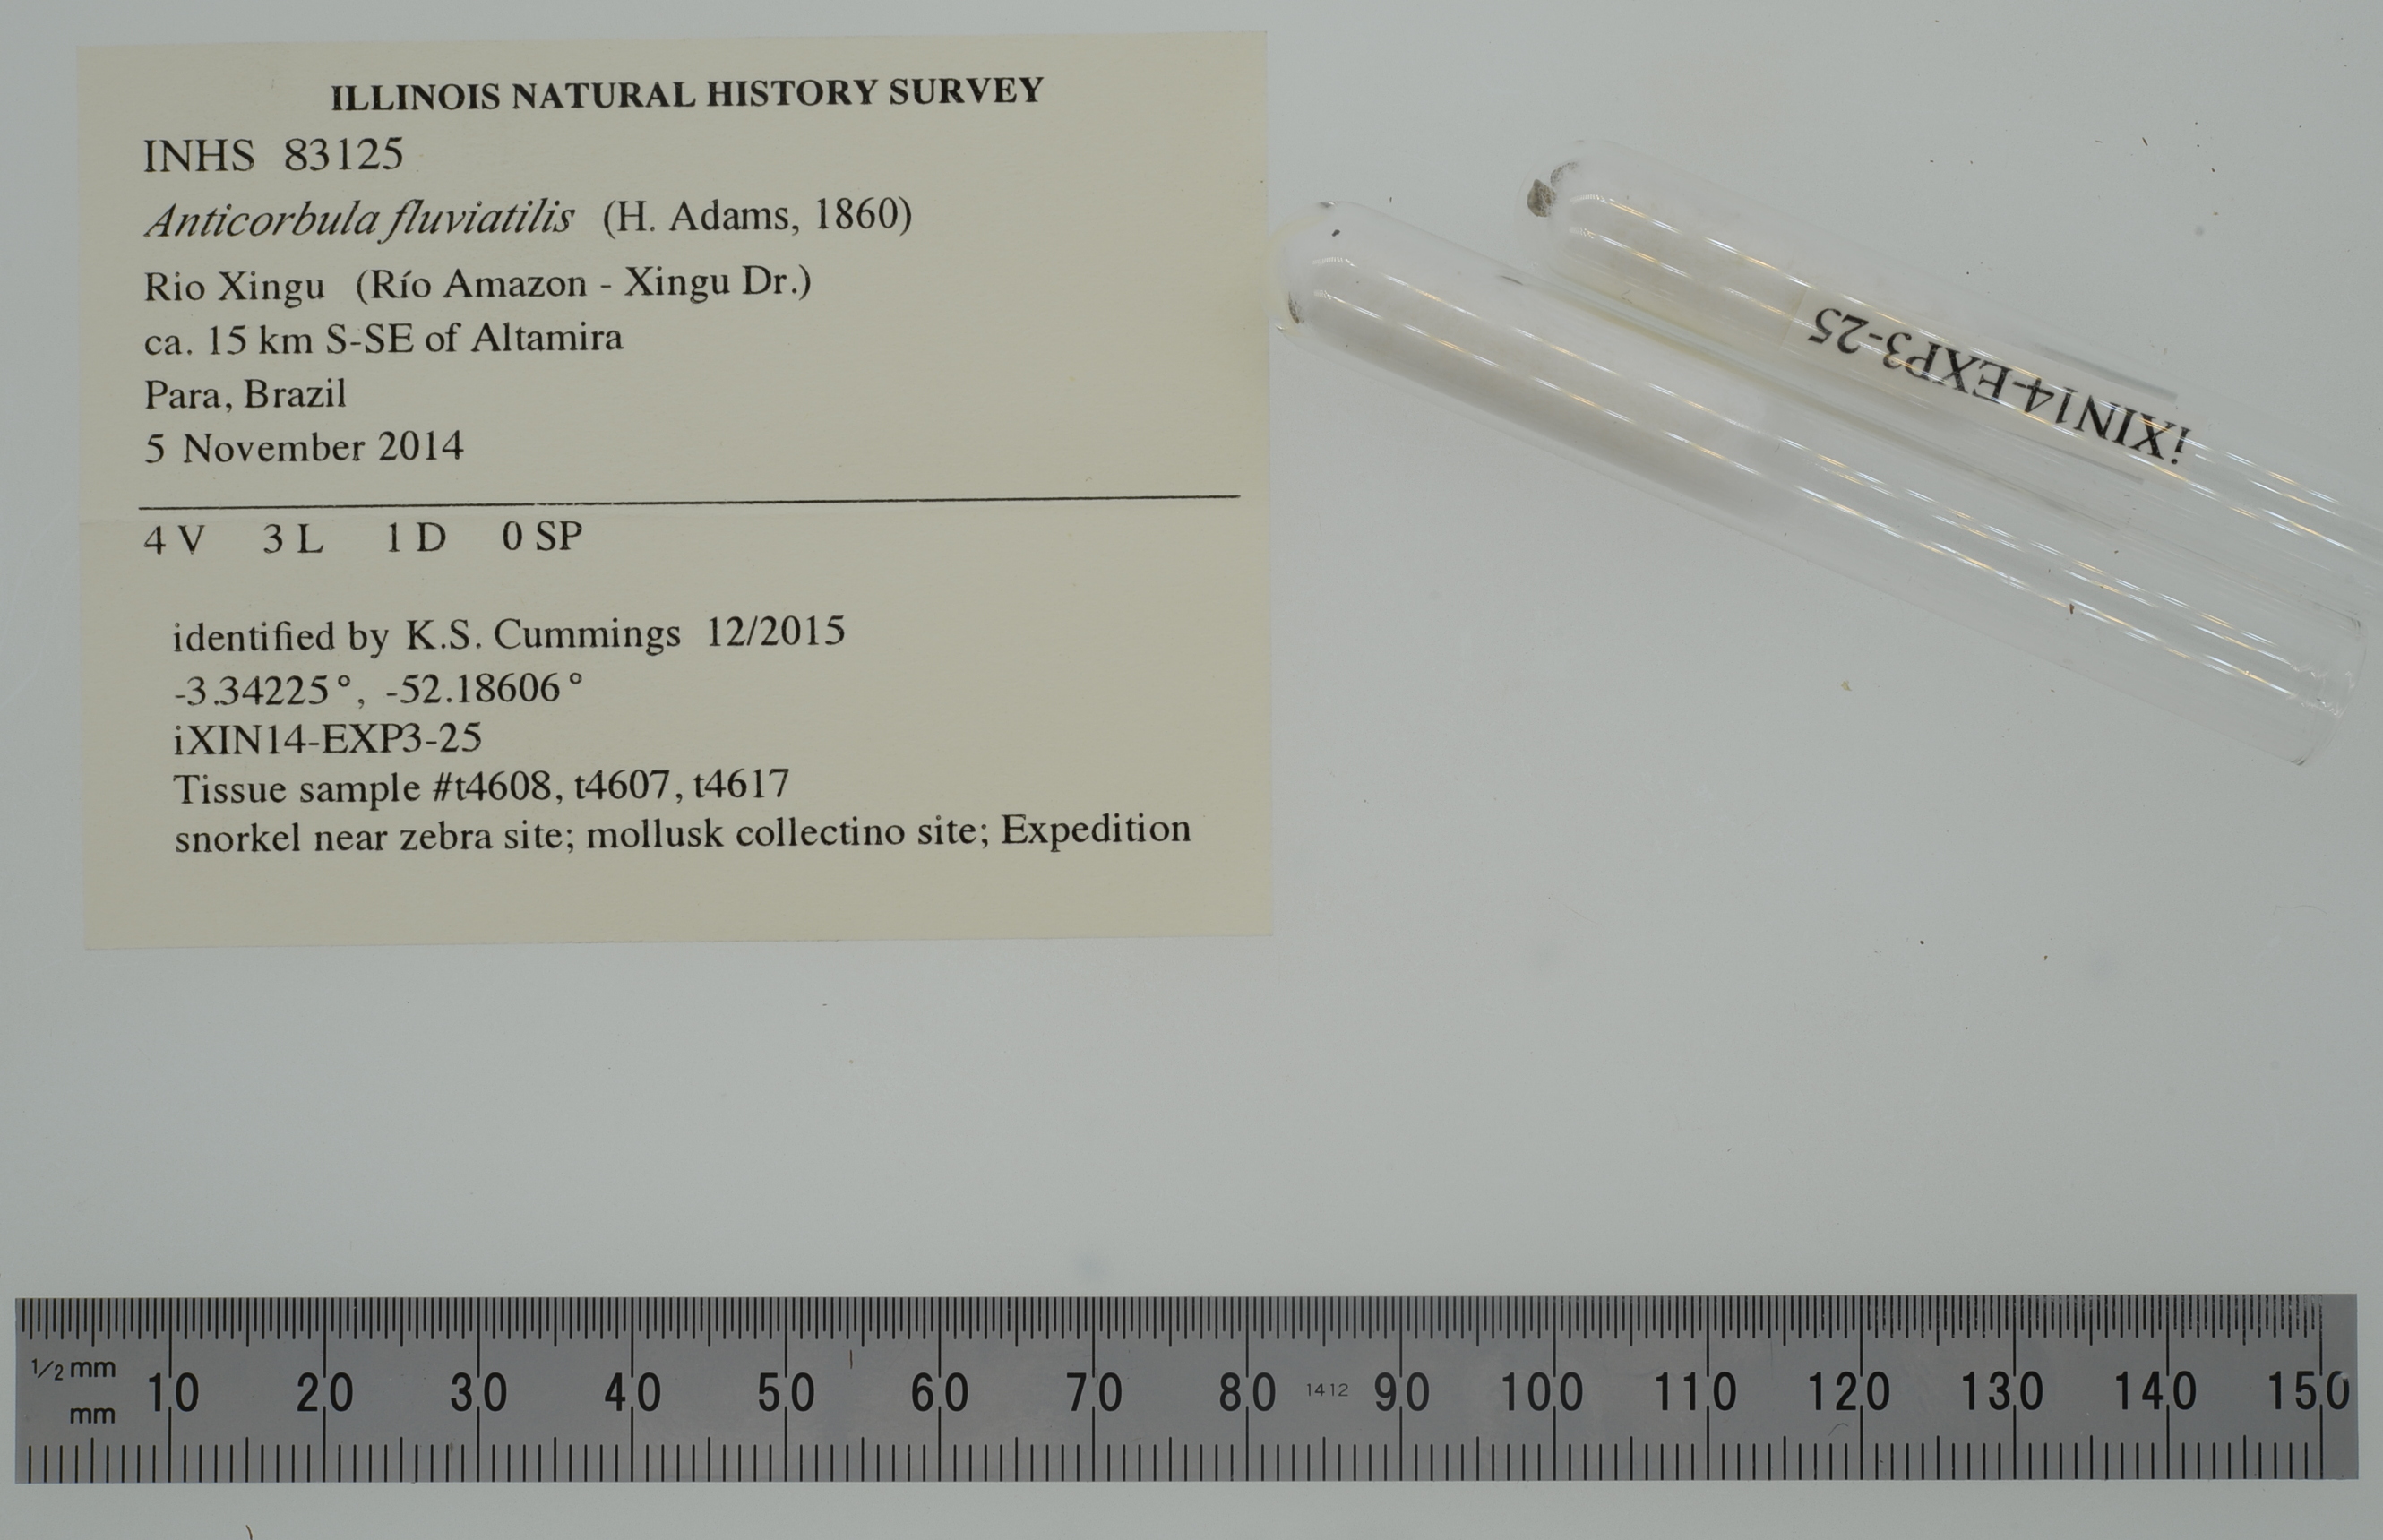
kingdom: Animalia
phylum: Mollusca
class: Bivalvia
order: Myida
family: Corbulidae
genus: Anticorbula
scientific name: Anticorbula fluviatilis
